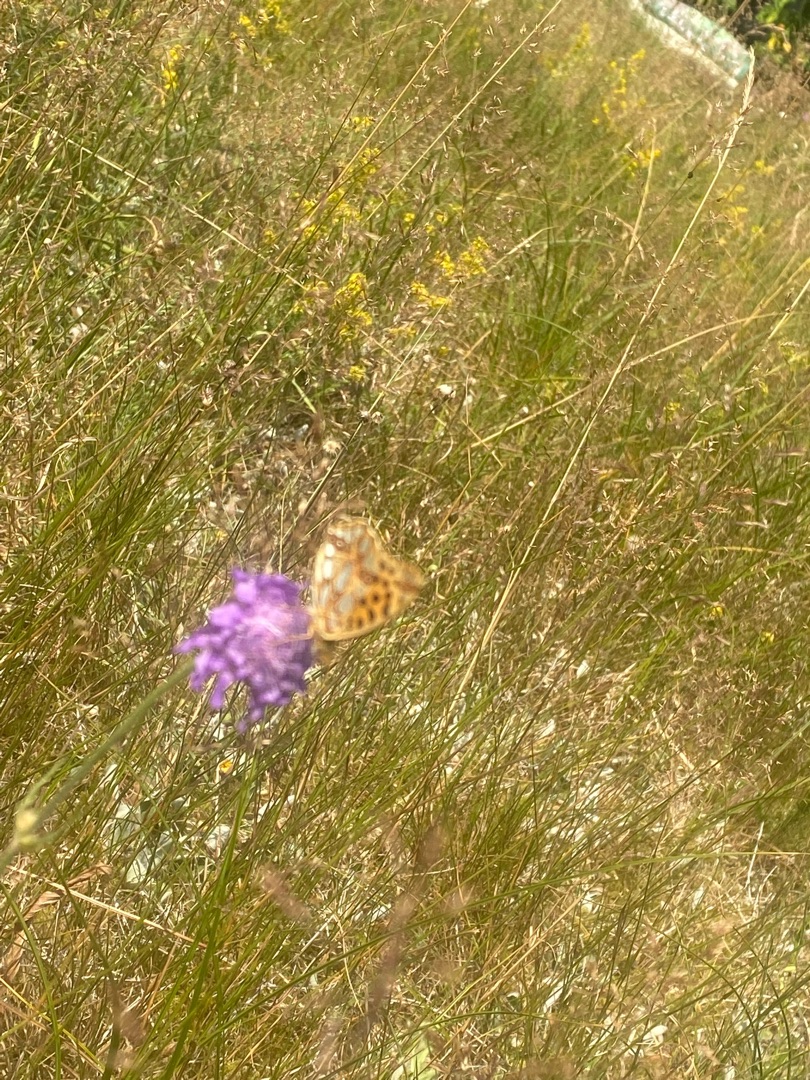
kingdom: Animalia
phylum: Arthropoda
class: Insecta
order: Lepidoptera
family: Nymphalidae
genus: Issoria
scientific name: Issoria lathonia
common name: Storplettet perlemorsommerfugl
